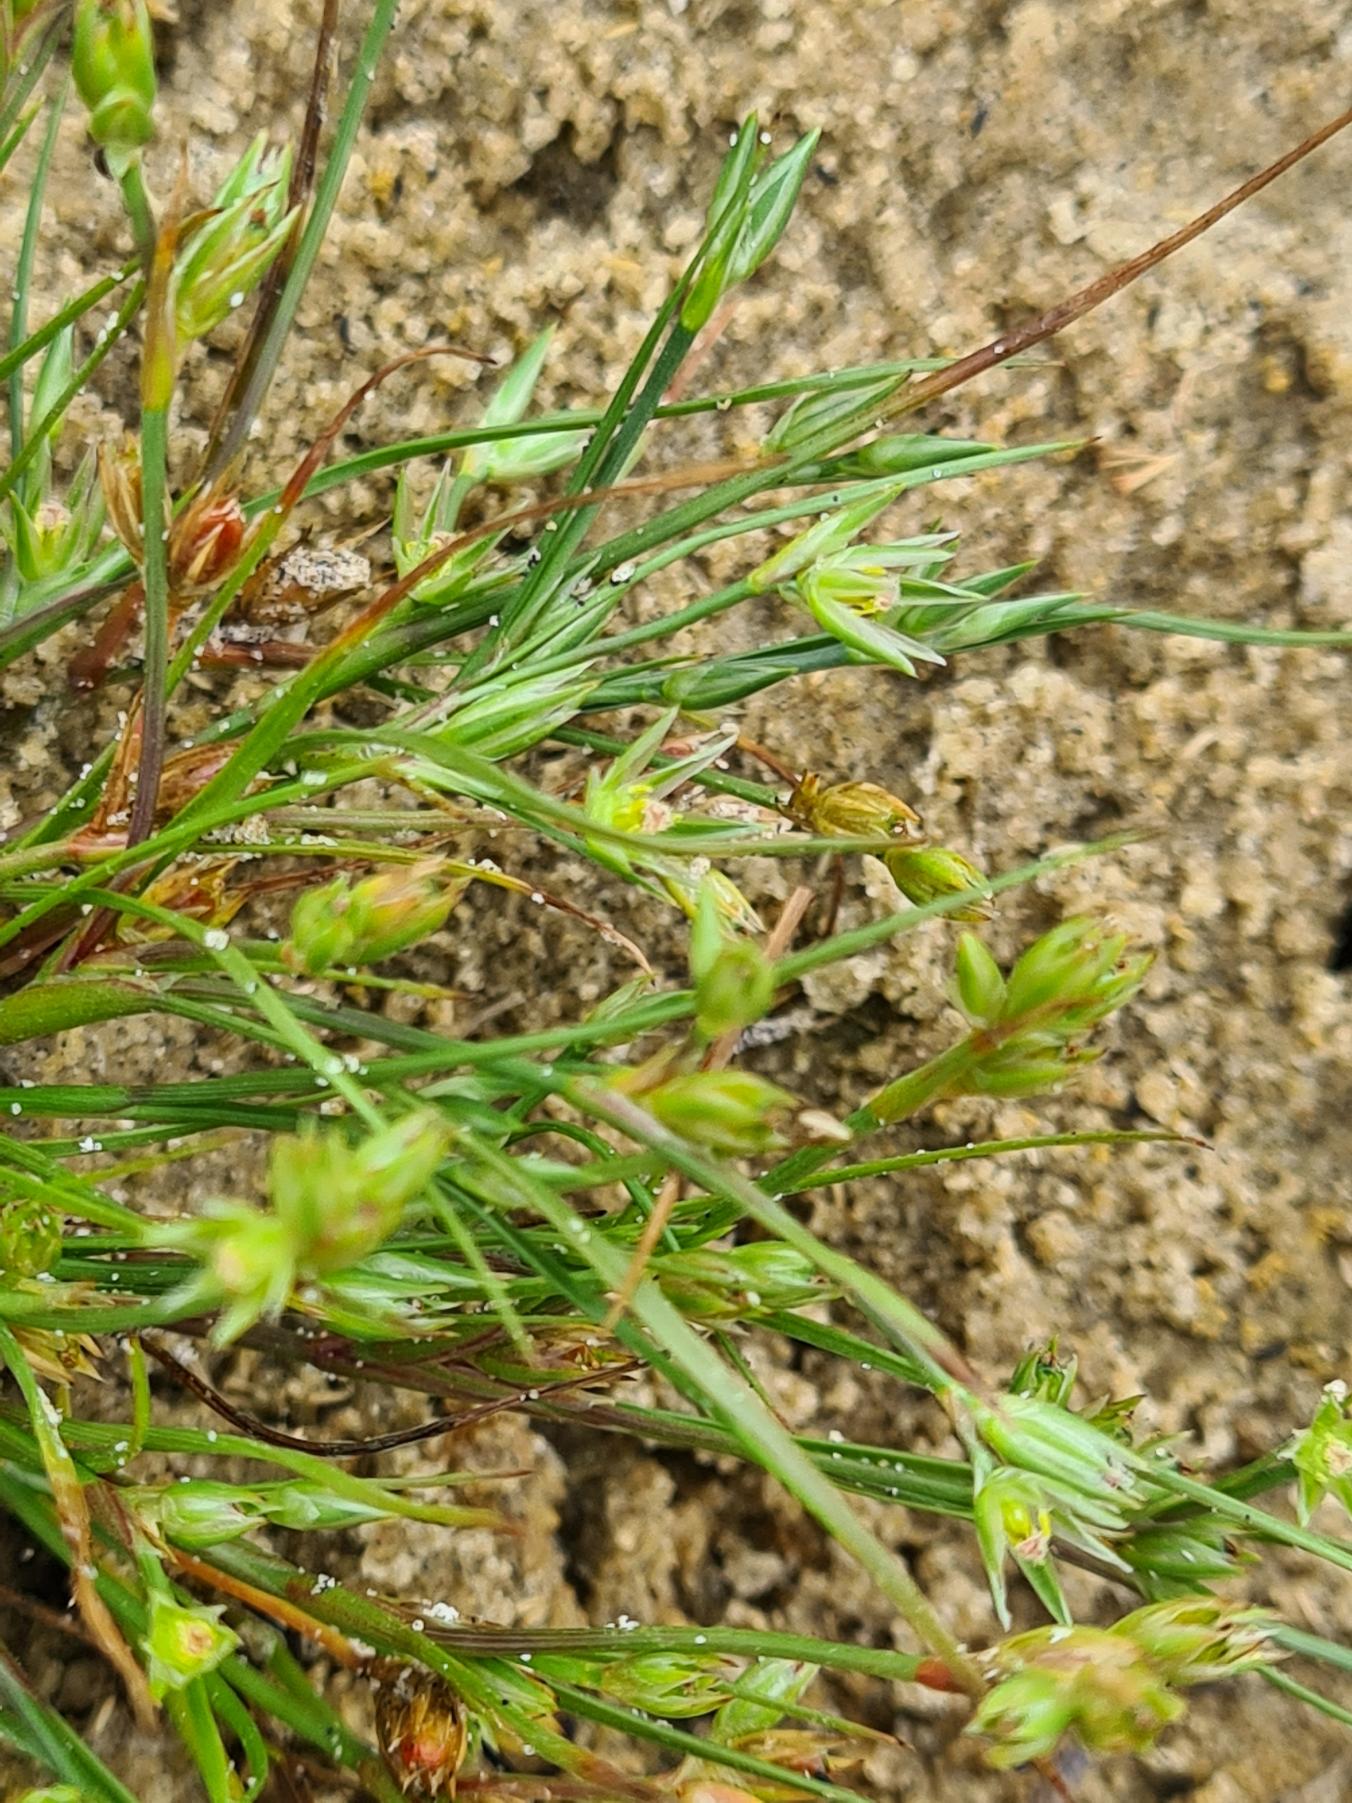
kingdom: Plantae
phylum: Tracheophyta
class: Liliopsida
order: Poales
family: Juncaceae
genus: Juncus
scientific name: Juncus bufonius
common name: Tudse-siv
